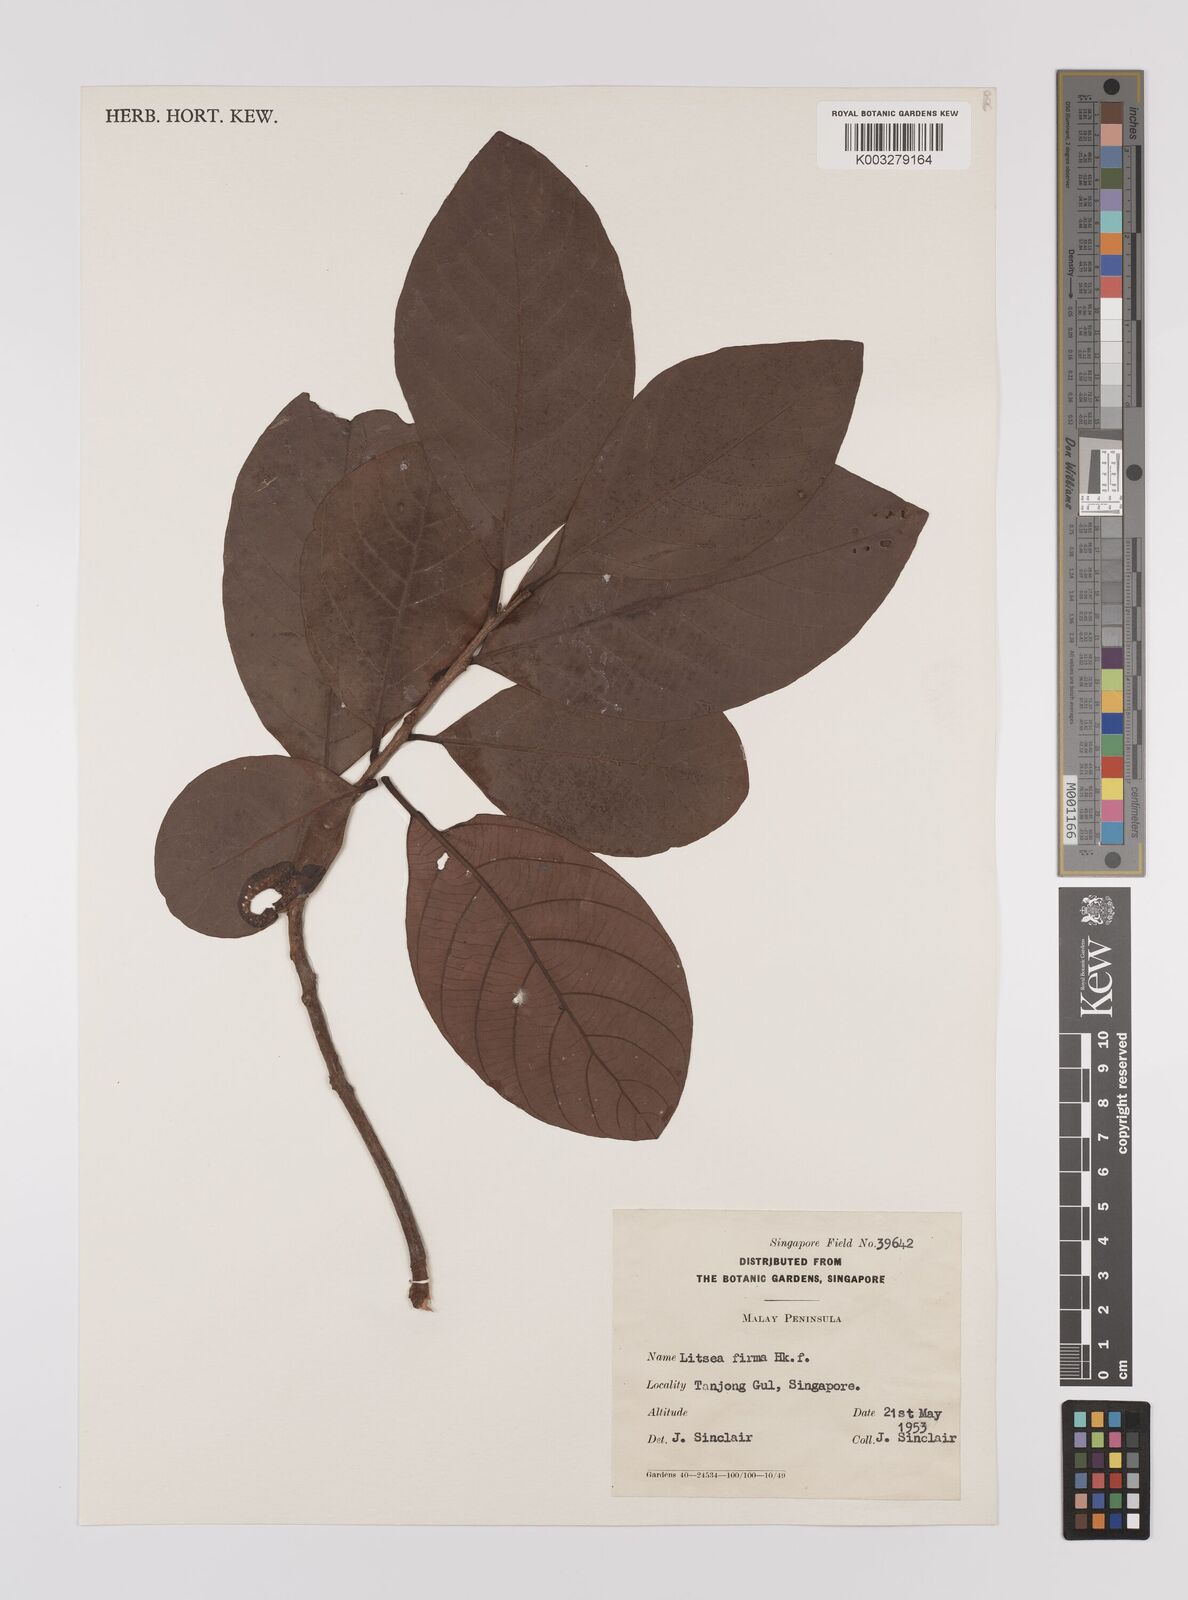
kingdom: Plantae
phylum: Tracheophyta
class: Magnoliopsida
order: Laurales
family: Lauraceae
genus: Litsea
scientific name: Litsea firma
